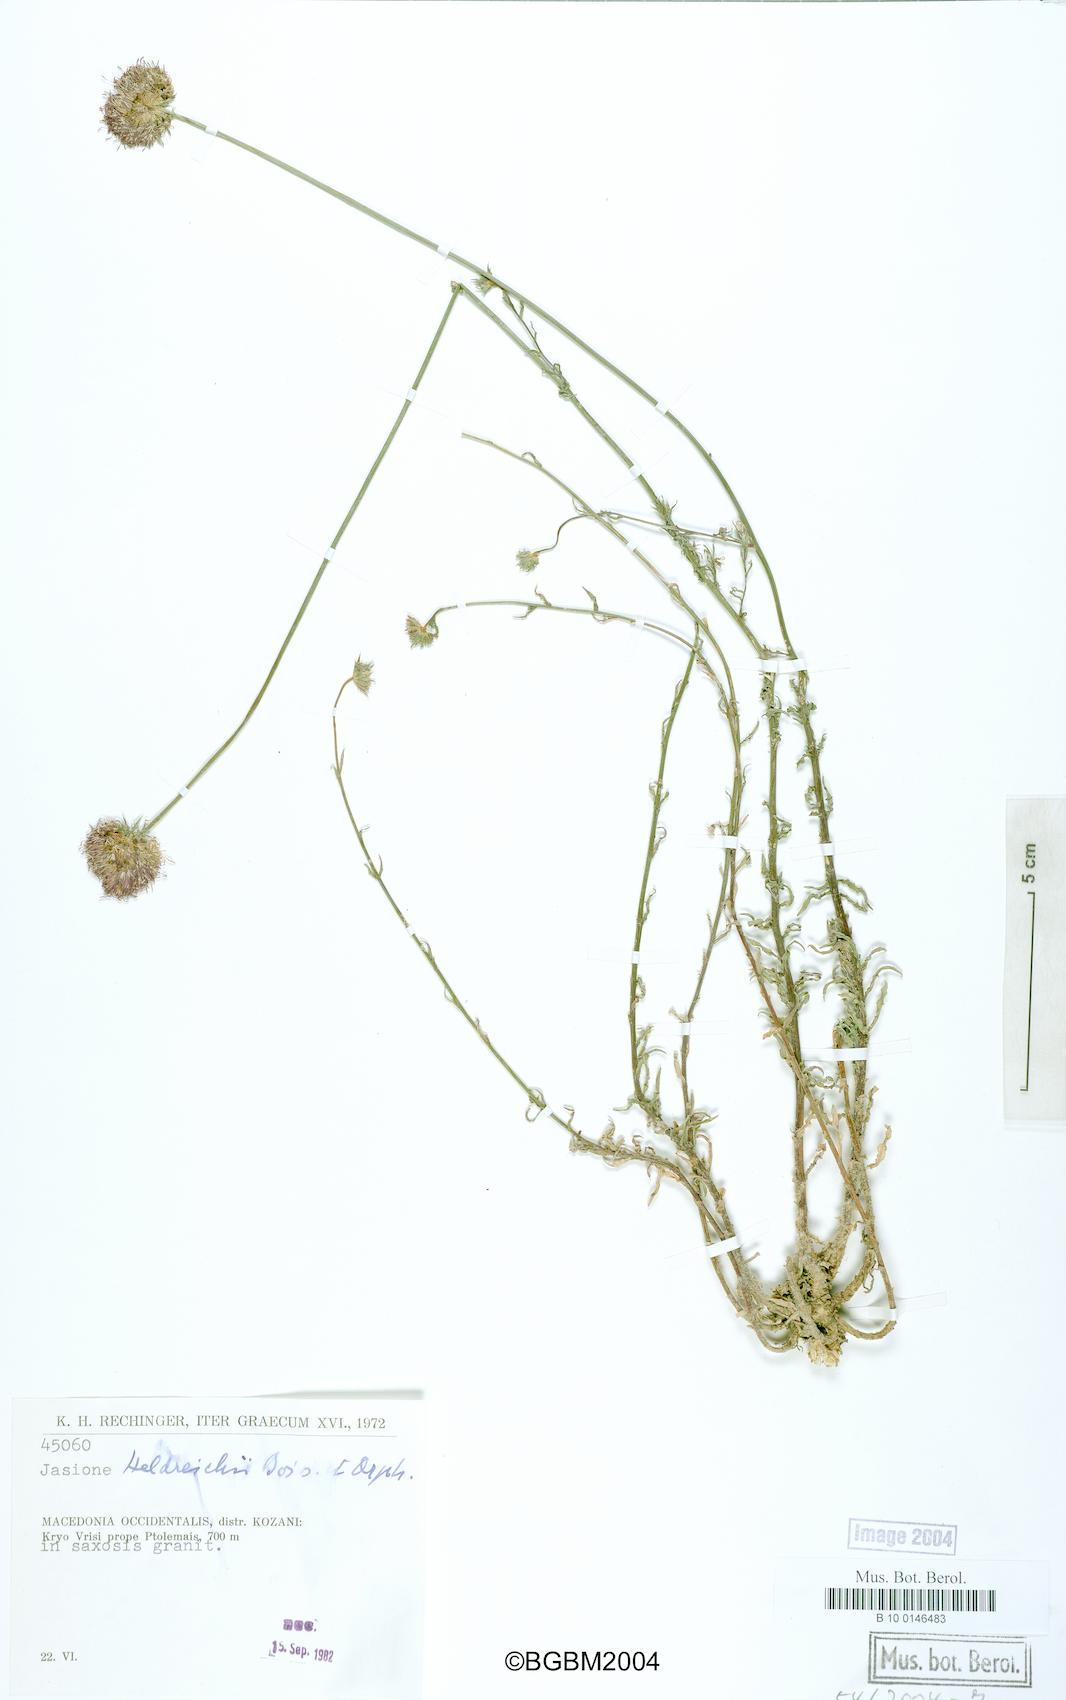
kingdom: Plantae
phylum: Tracheophyta
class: Magnoliopsida
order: Asterales
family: Campanulaceae
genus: Jasione
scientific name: Jasione heldreichii
